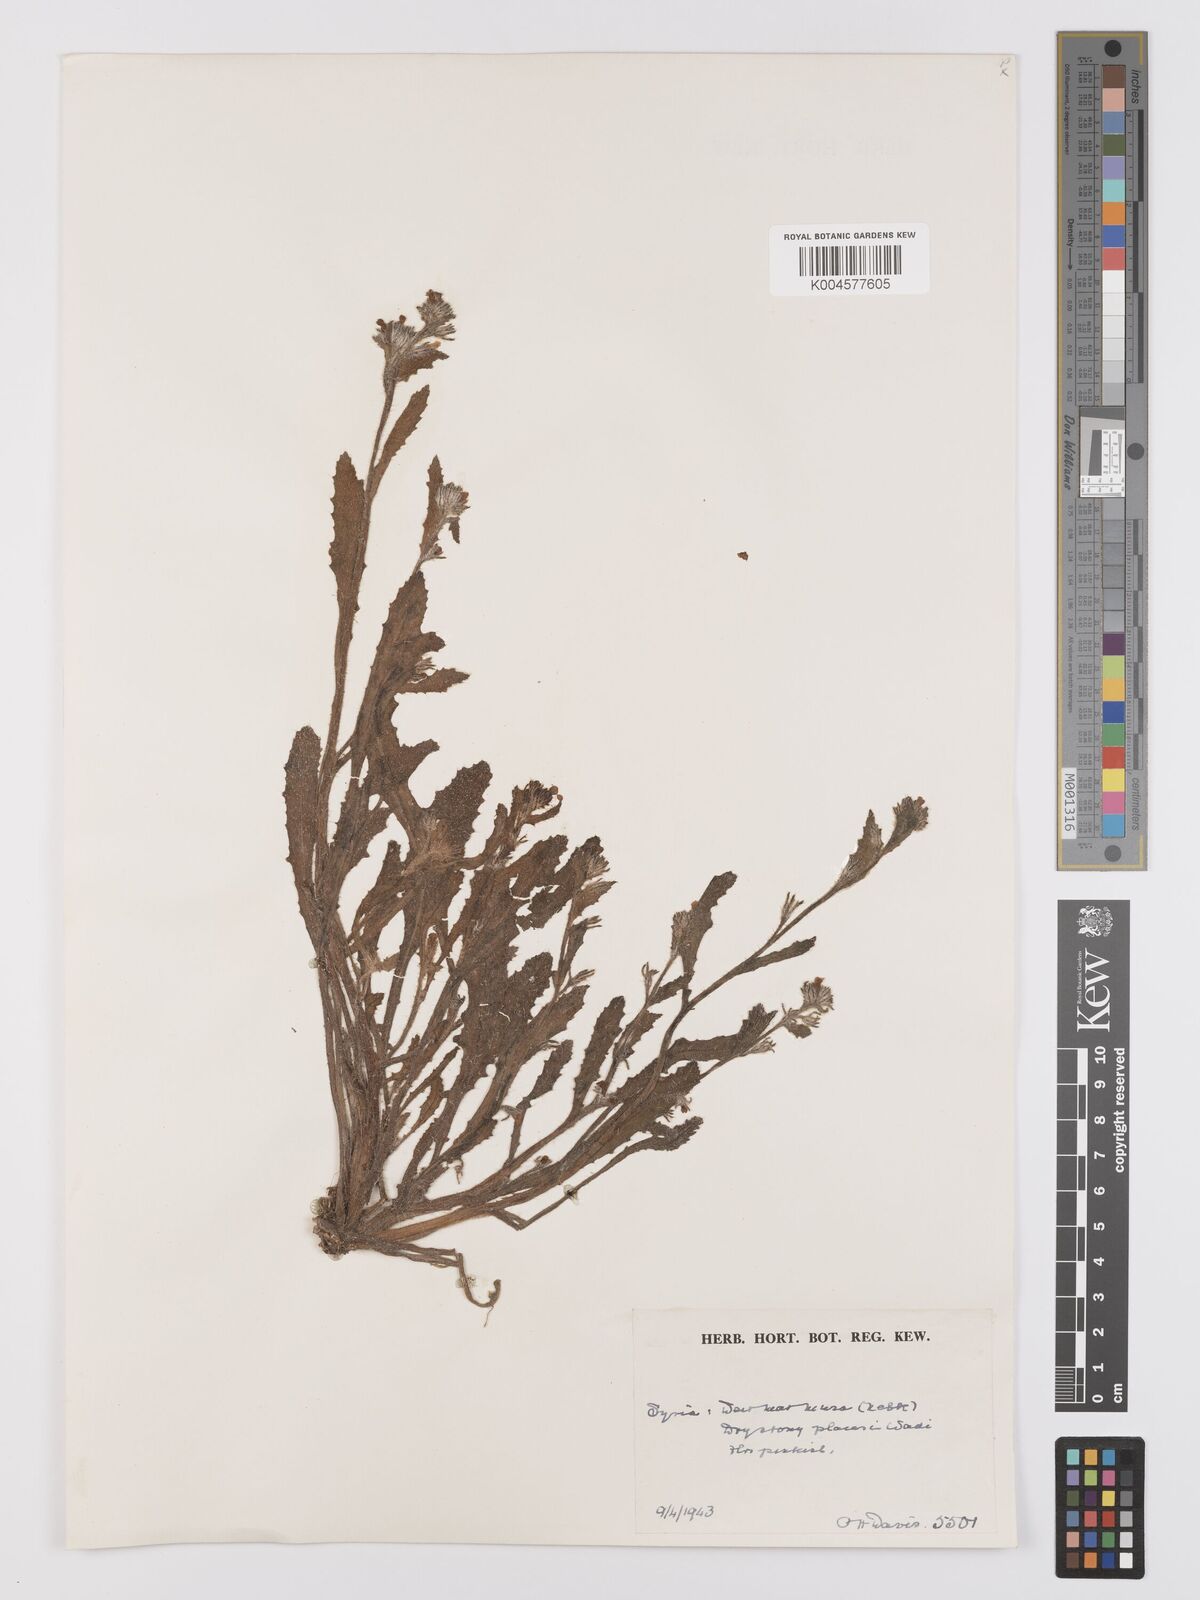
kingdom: Plantae
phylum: Tracheophyta
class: Magnoliopsida
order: Boraginales
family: Boraginaceae
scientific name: Boraginaceae
